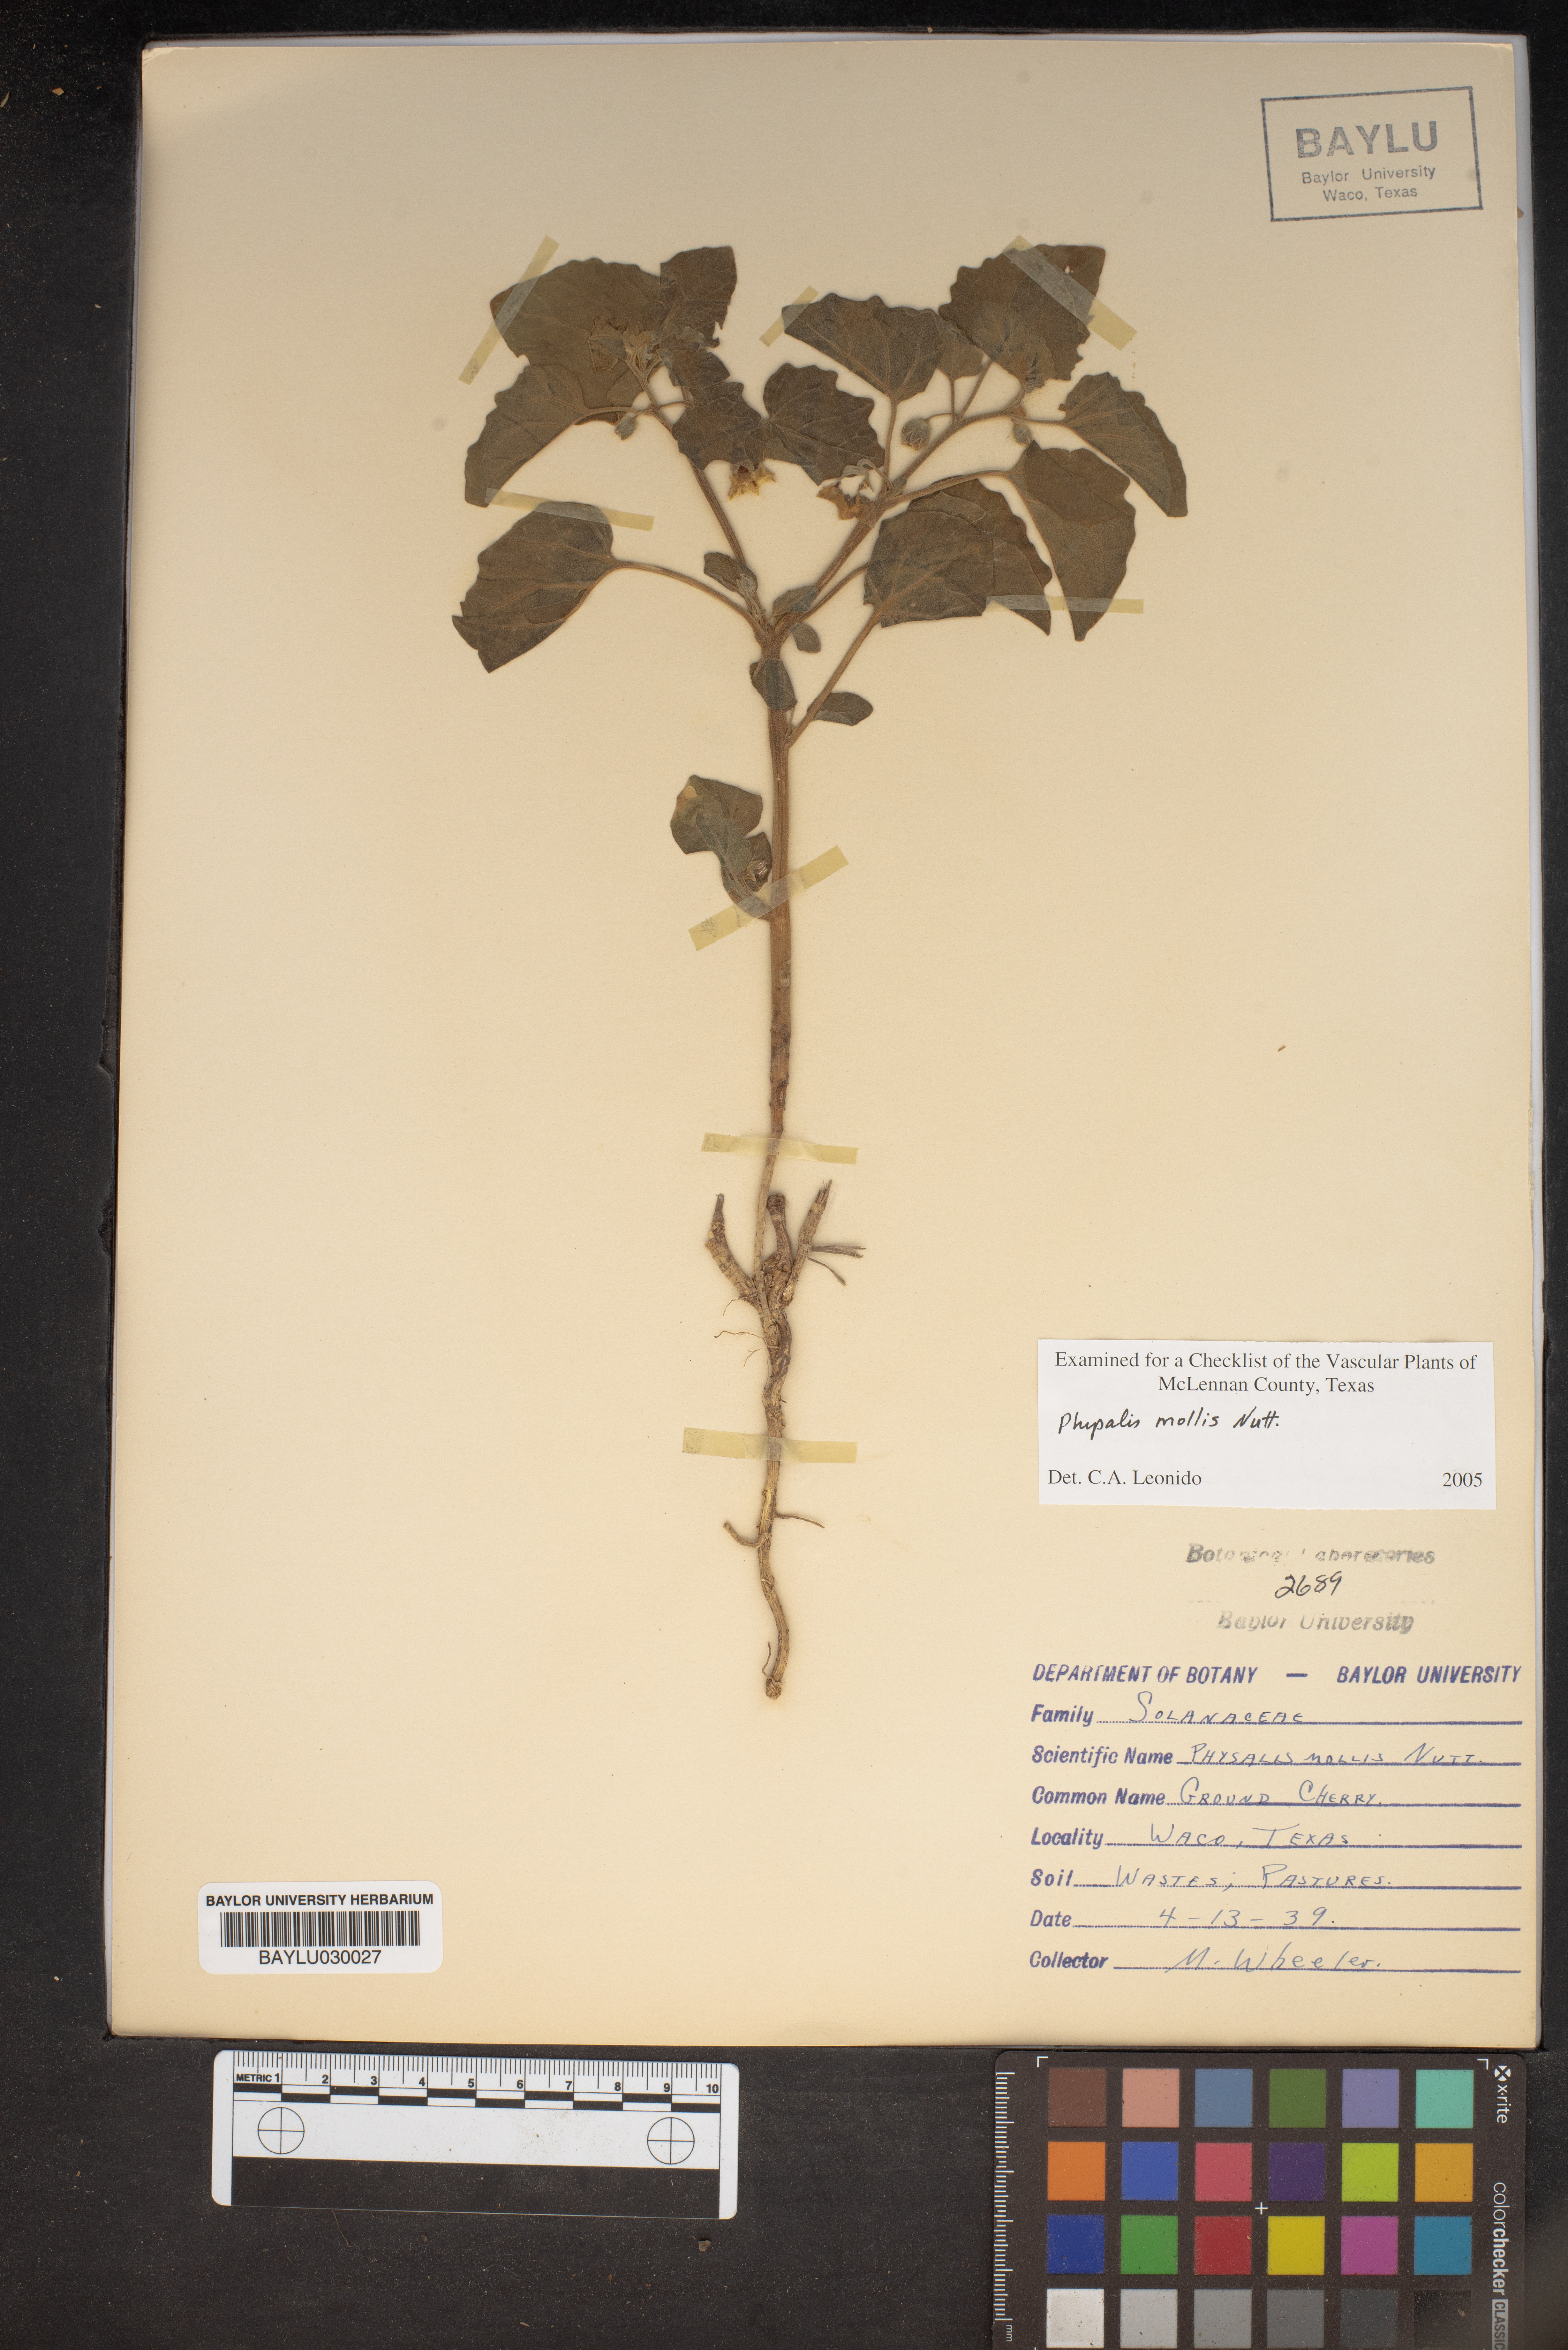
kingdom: Plantae
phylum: Tracheophyta
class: Magnoliopsida
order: Solanales
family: Solanaceae
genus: Physalis
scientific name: Physalis mollis
